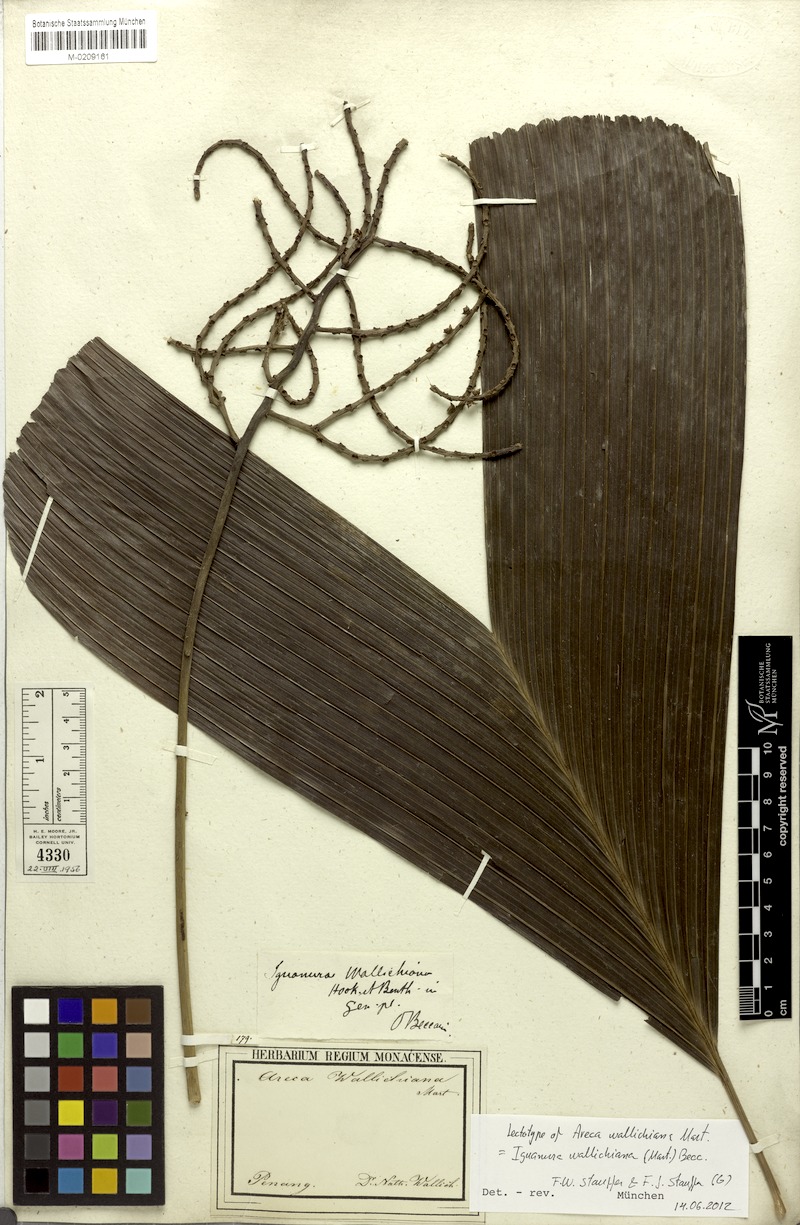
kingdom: Plantae
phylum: Tracheophyta
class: Liliopsida
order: Arecales
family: Arecaceae
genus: Iguanura
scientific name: Iguanura wallichiana
